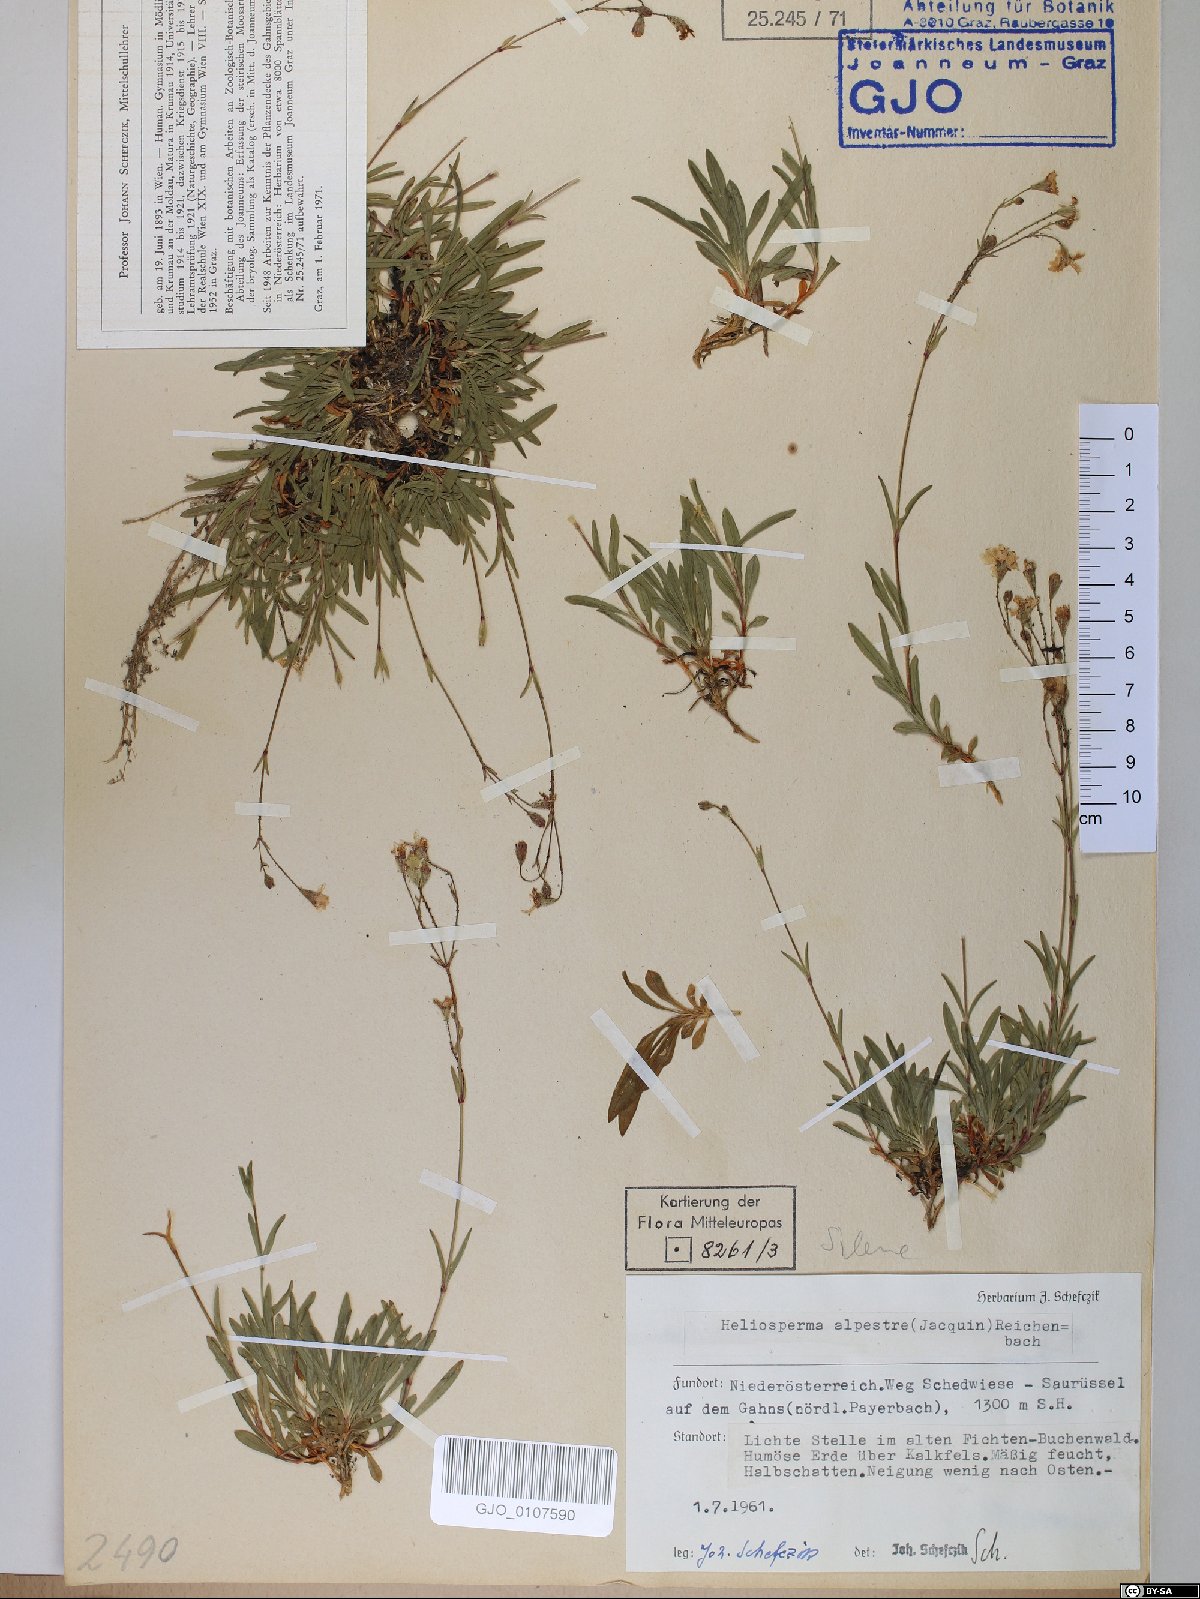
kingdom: Plantae
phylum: Tracheophyta
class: Magnoliopsida
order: Caryophyllales
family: Caryophyllaceae
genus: Heliosperma
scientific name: Heliosperma alpestre
